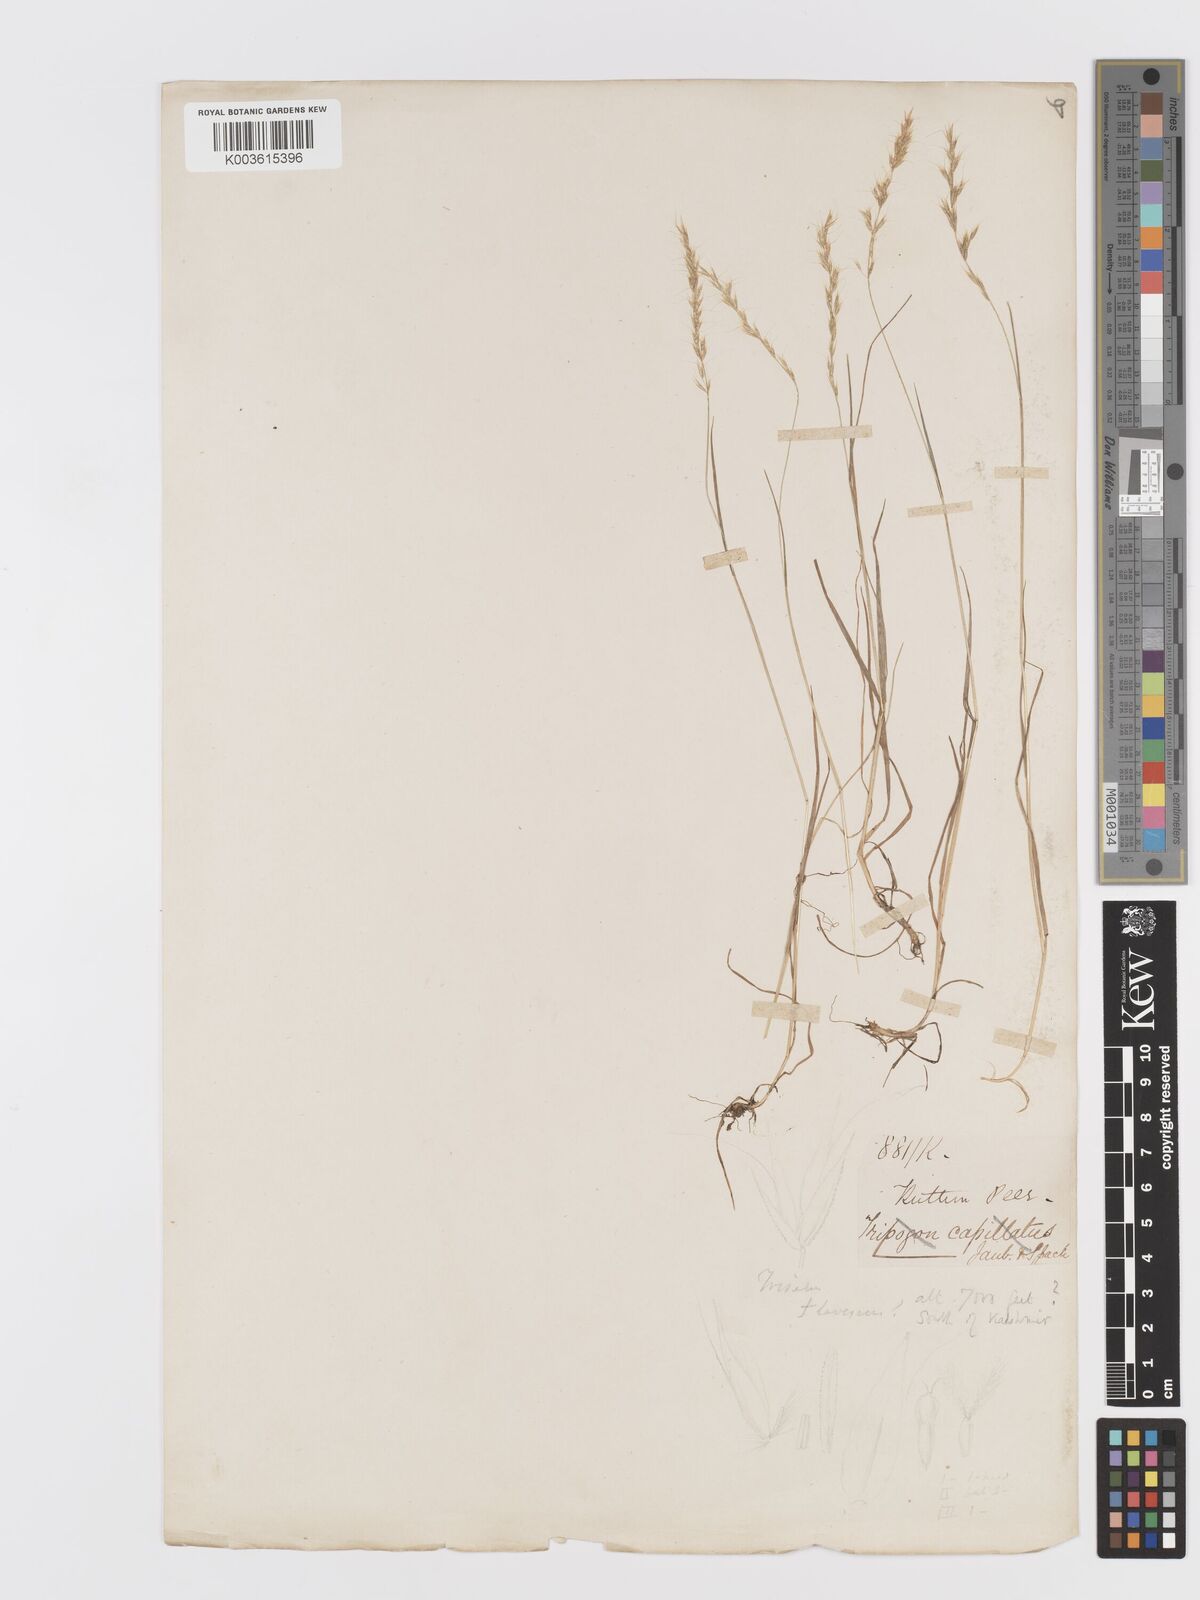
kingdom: Plantae
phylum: Tracheophyta
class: Liliopsida
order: Poales
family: Poaceae
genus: Trisetum
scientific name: Trisetum
